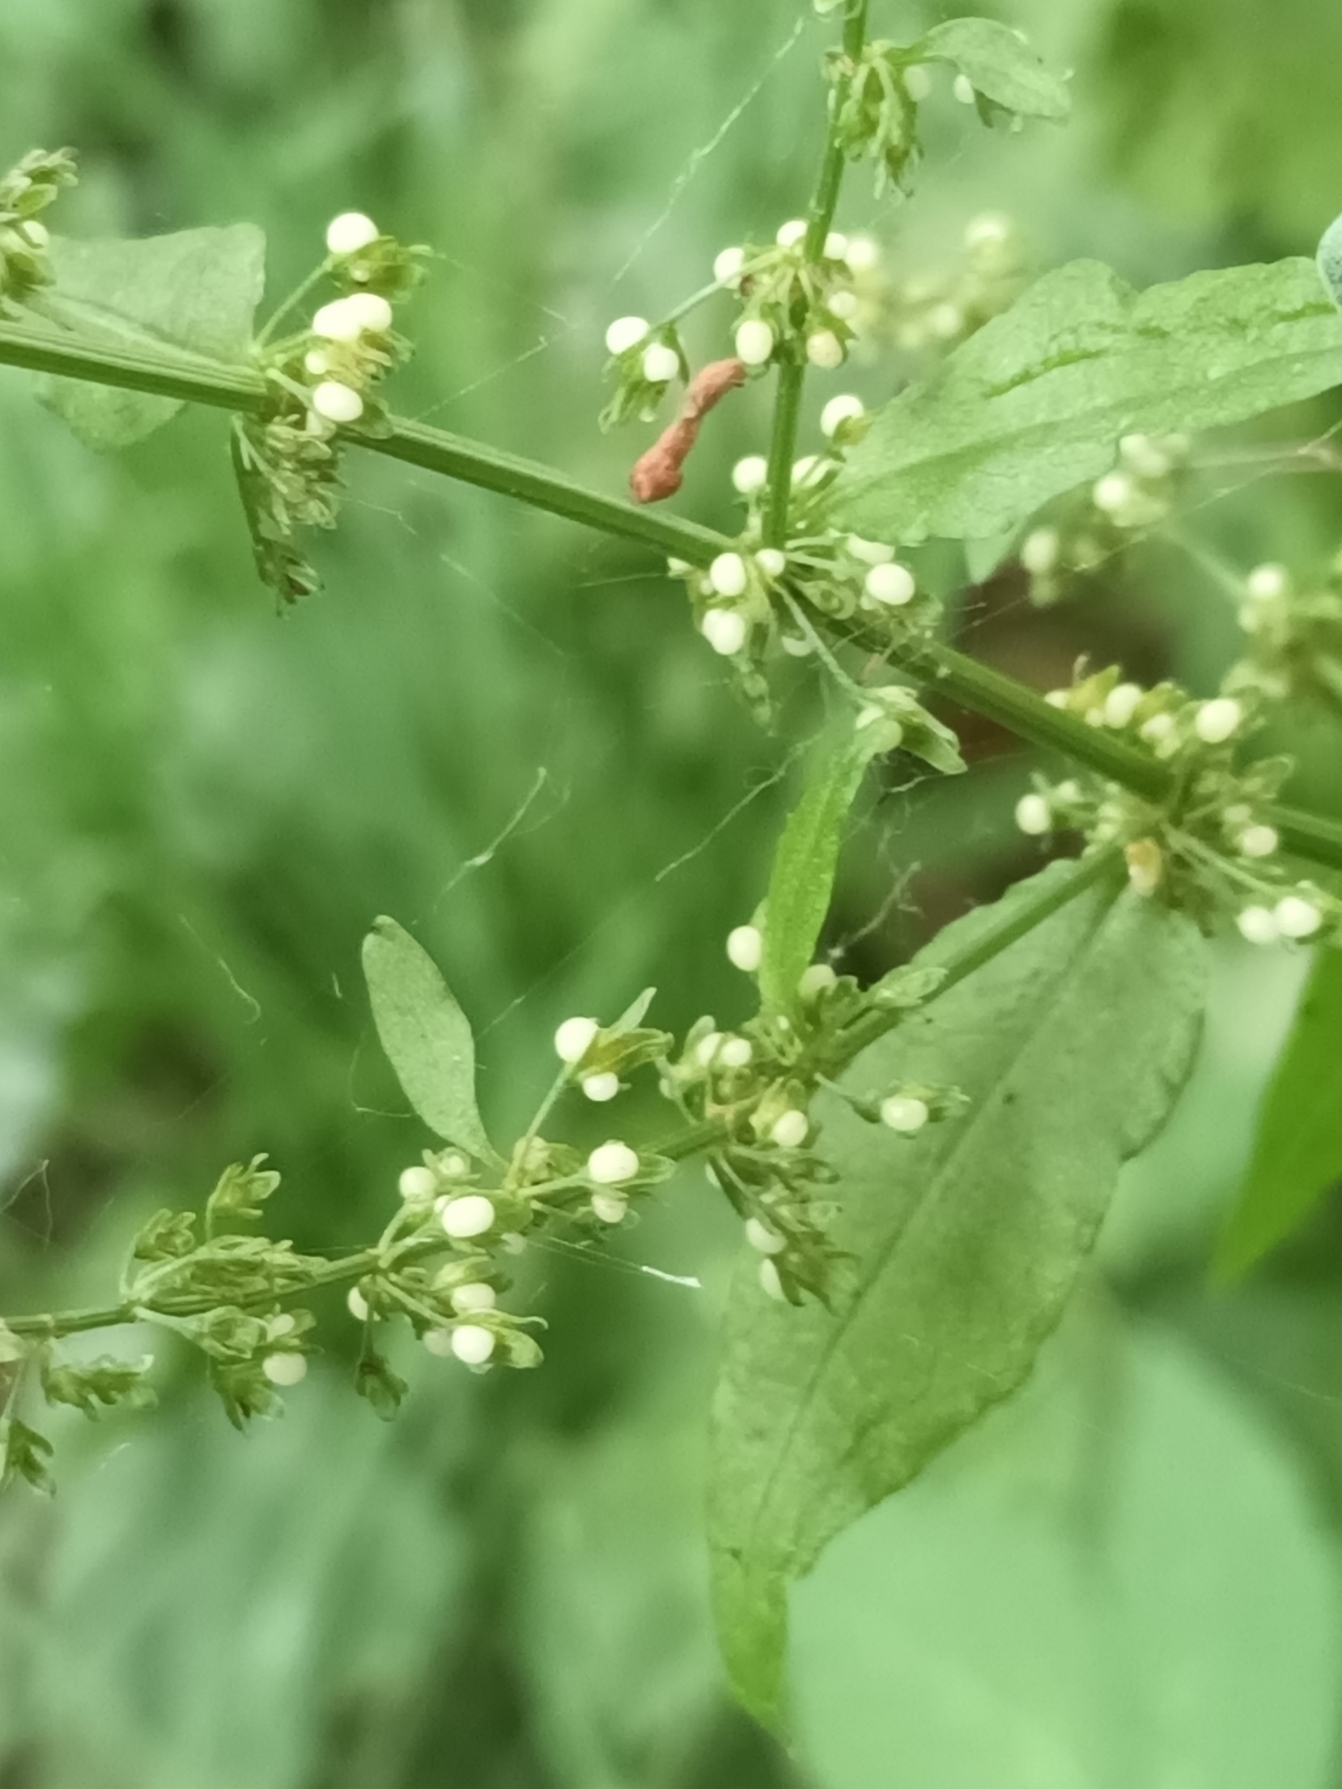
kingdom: Plantae
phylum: Tracheophyta
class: Magnoliopsida
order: Caryophyllales
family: Polygonaceae
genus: Rumex
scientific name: Rumex sanguineus
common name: Skov-skræppe
